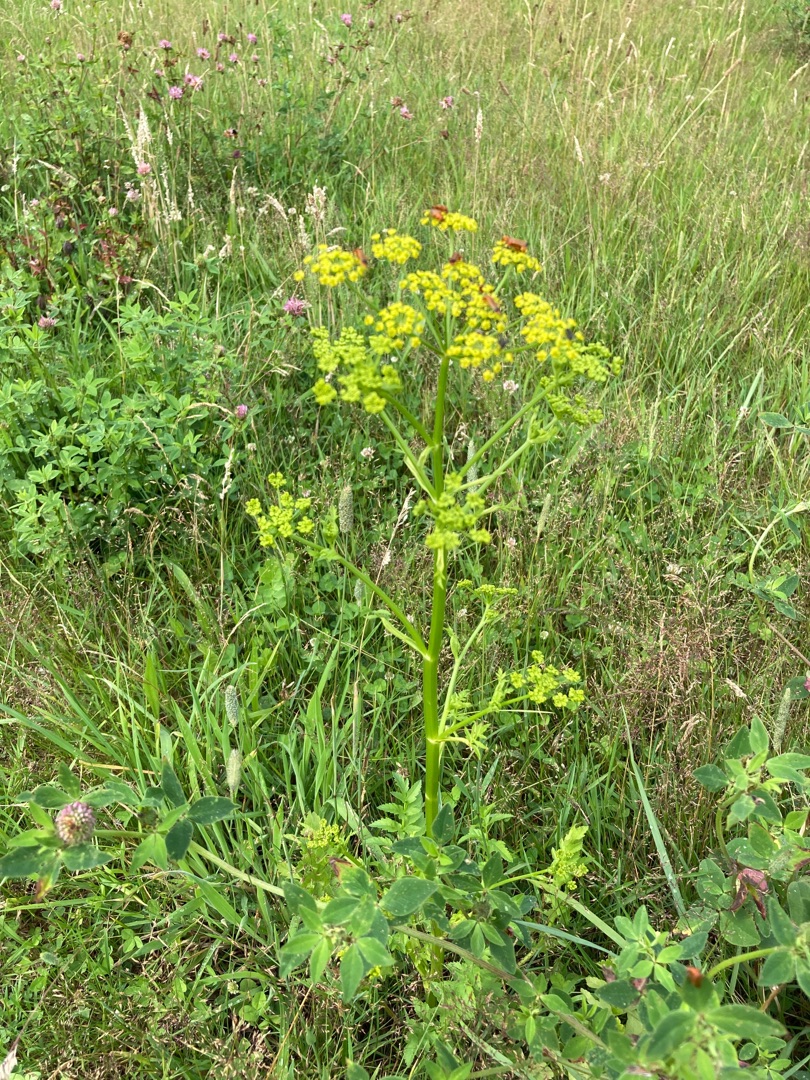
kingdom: Plantae
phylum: Tracheophyta
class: Magnoliopsida
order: Apiales
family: Apiaceae
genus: Pastinaca
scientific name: Pastinaca sativa
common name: Pastinak
